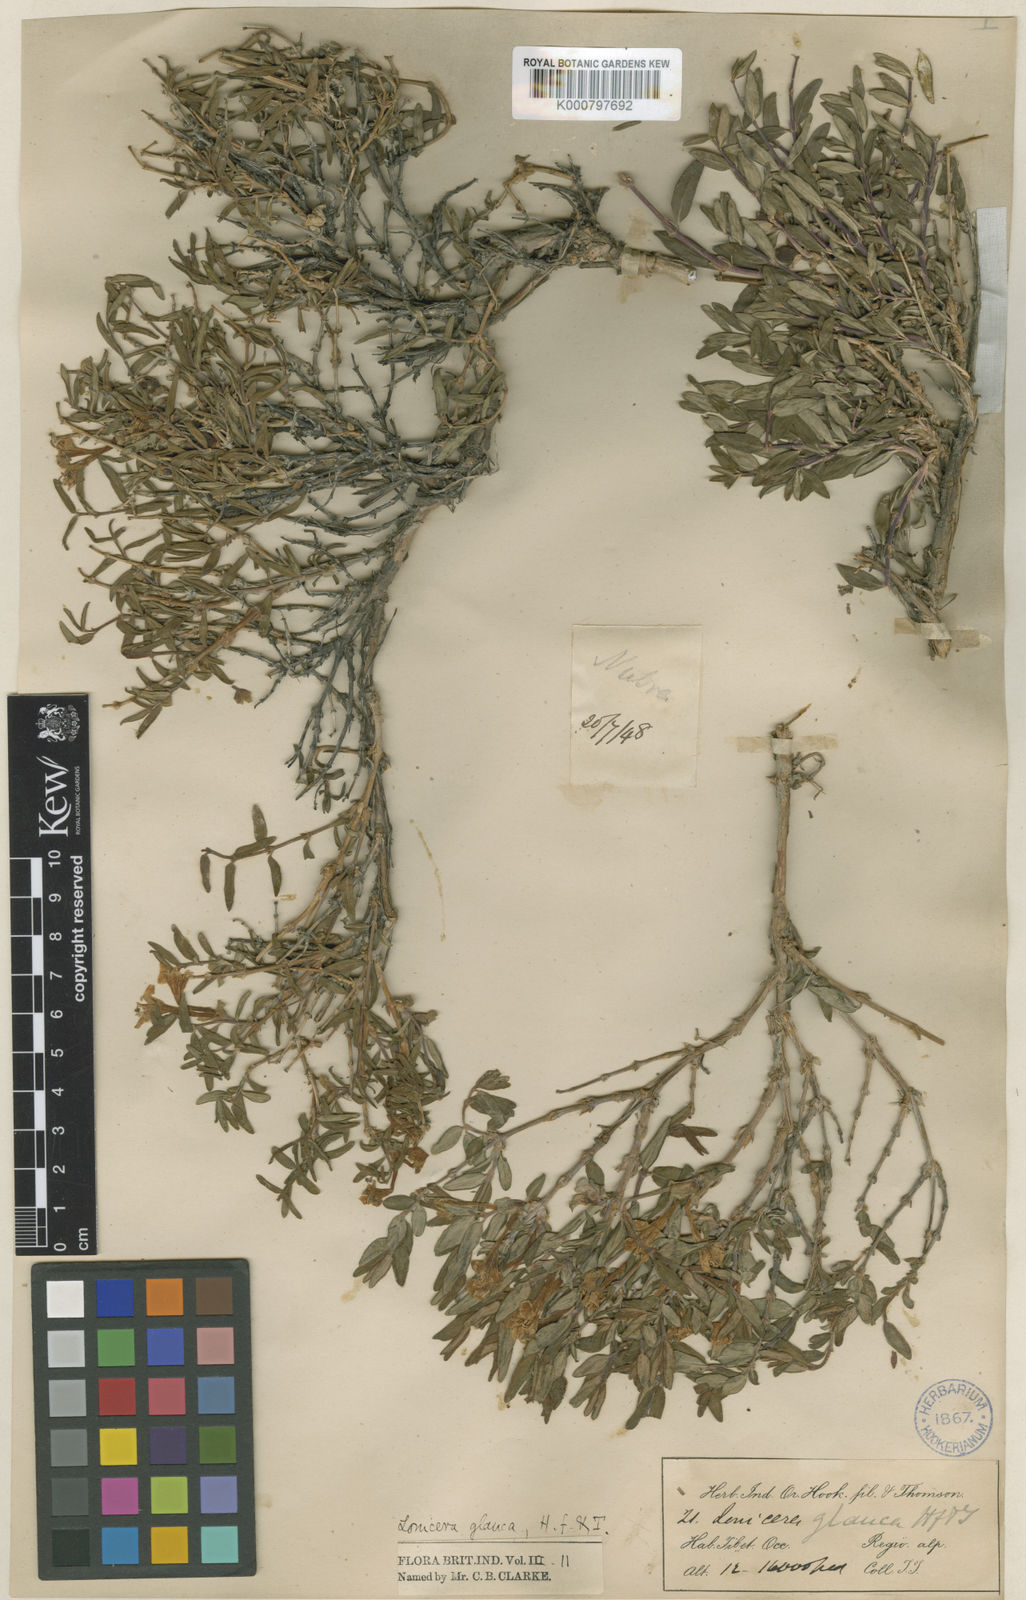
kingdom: Plantae
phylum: Tracheophyta
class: Magnoliopsida
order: Dipsacales
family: Caprifoliaceae
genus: Lonicera
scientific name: Lonicera semenovii
